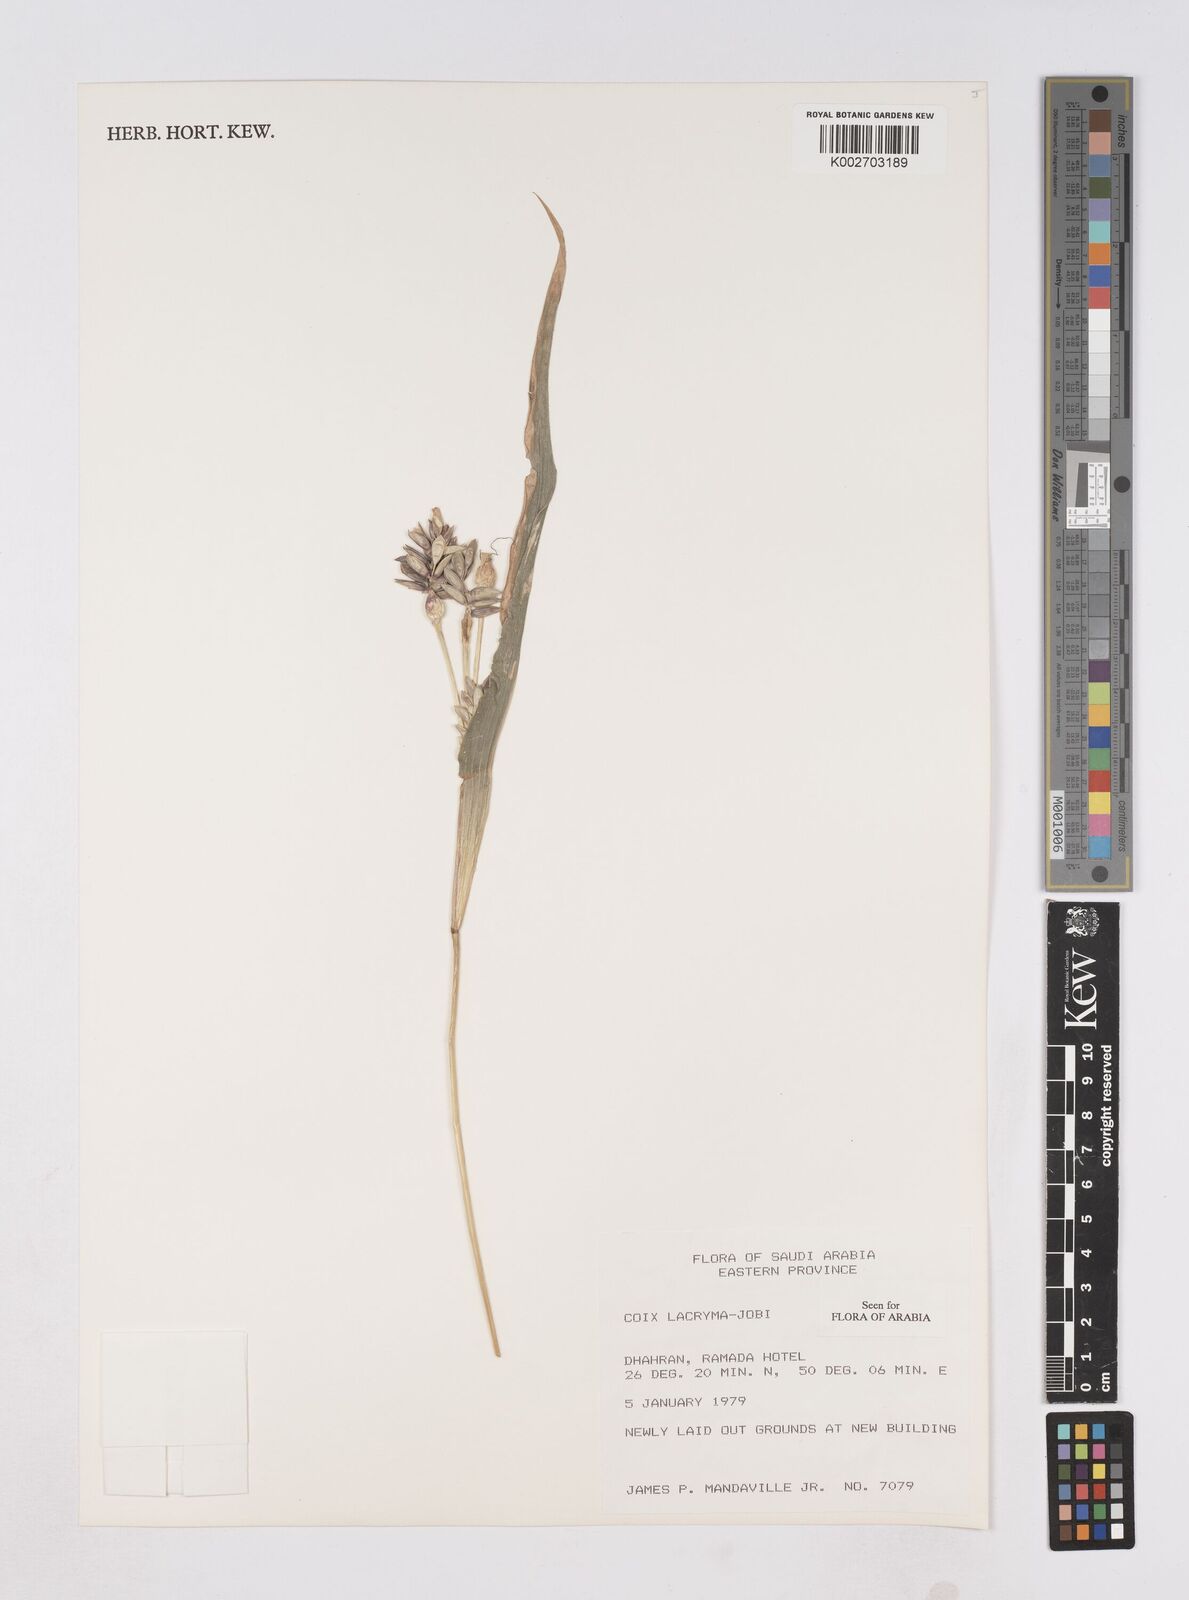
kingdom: Plantae
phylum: Tracheophyta
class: Liliopsida
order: Poales
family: Poaceae
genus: Coix
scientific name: Coix lacryma-jobi
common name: Job's tears
